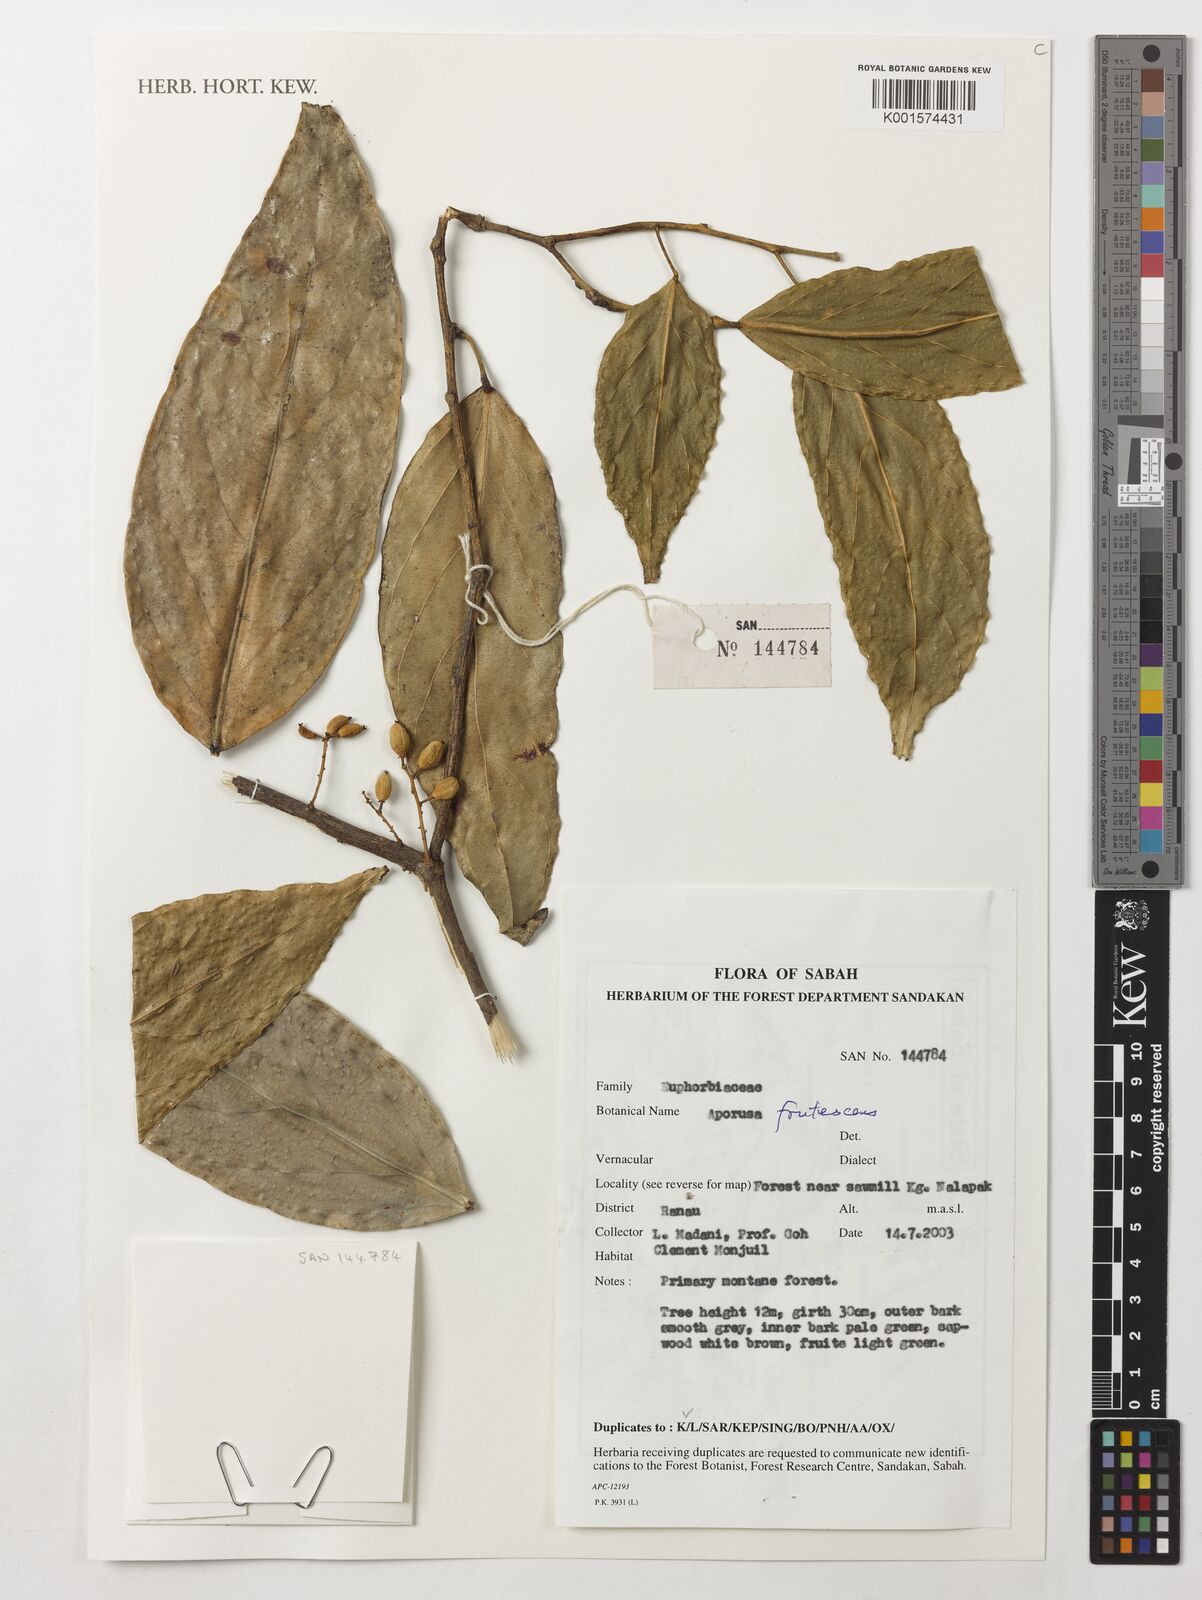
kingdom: Plantae
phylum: Tracheophyta
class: Magnoliopsida
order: Malpighiales
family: Phyllanthaceae
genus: Aporosa
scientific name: Aporosa frutescens
